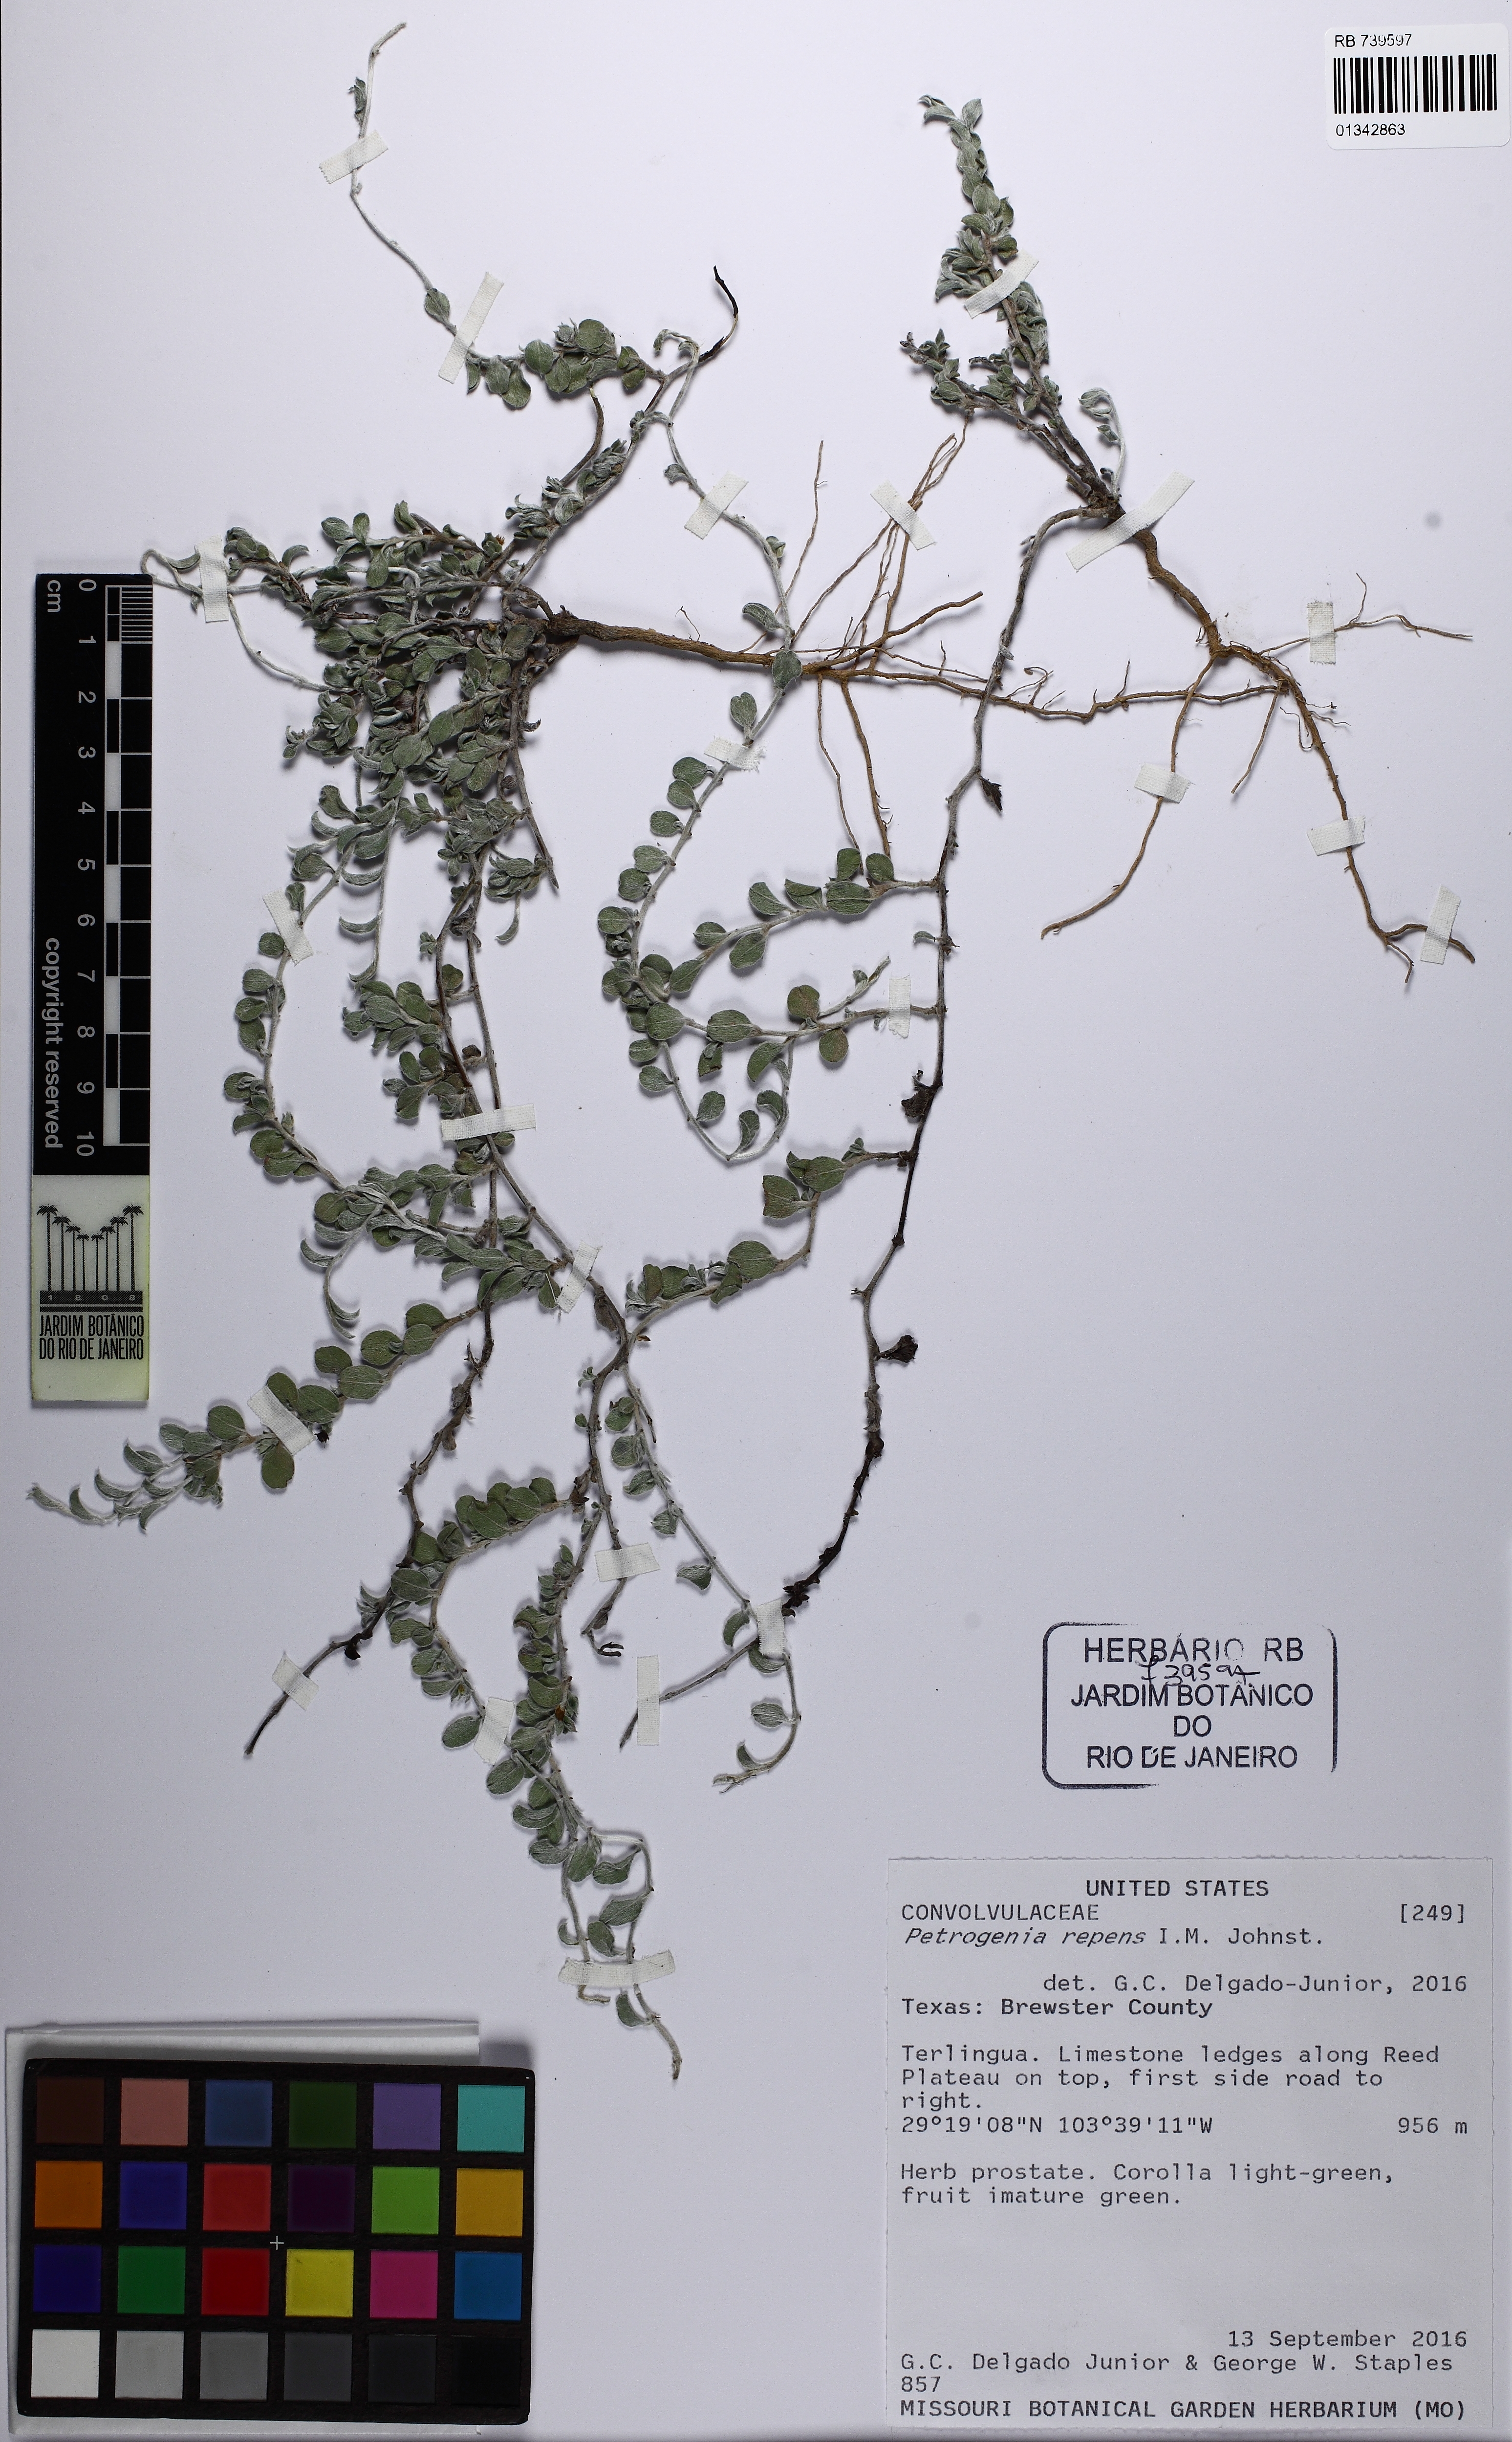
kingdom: Plantae
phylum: Tracheophyta
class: Magnoliopsida
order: Solanales
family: Convolvulaceae
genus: Bonamia
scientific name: Bonamia repens
